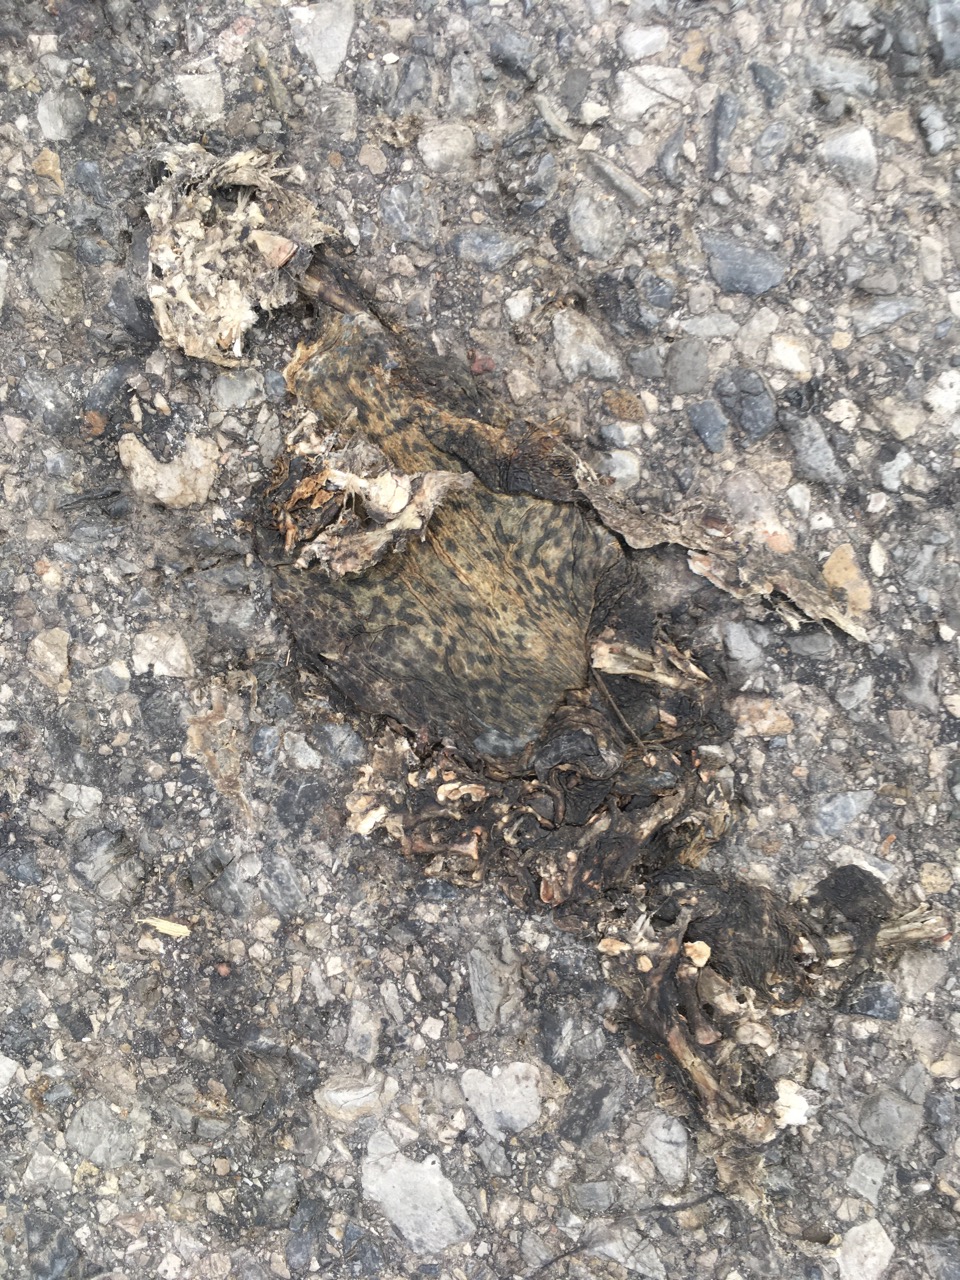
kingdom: Animalia
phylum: Chordata
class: Amphibia
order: Anura
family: Bufonidae
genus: Bufo
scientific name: Bufo bufo
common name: Common toad
